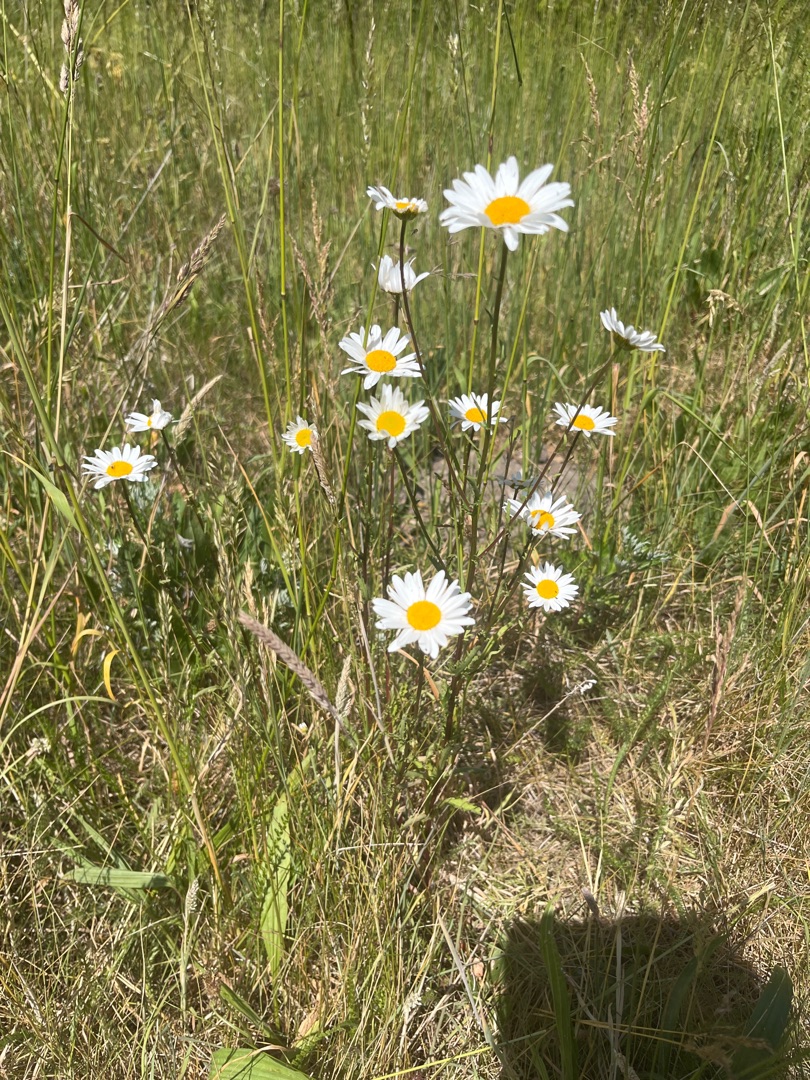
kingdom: Plantae
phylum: Tracheophyta
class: Magnoliopsida
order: Asterales
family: Asteraceae
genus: Leucanthemum
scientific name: Leucanthemum vulgare
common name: Hvid okseøje
